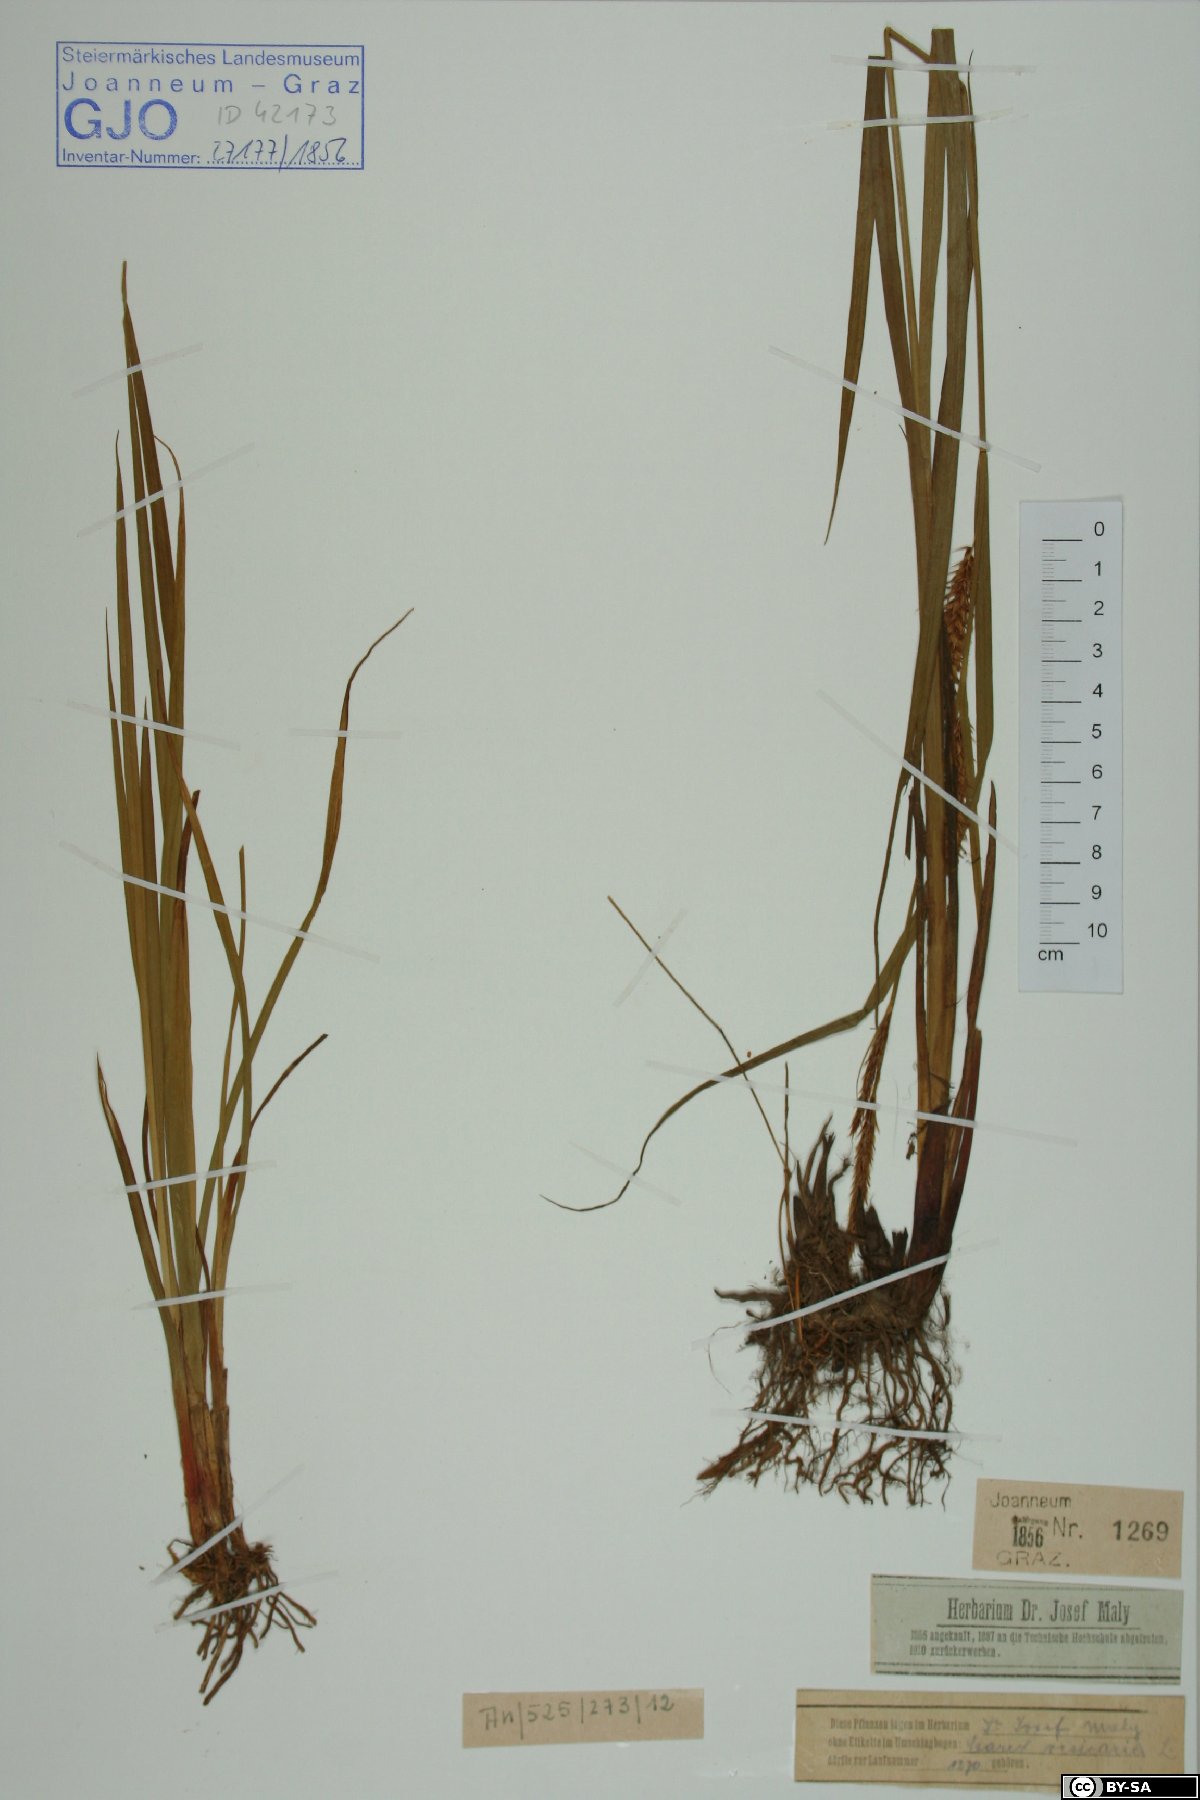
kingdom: Plantae
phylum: Tracheophyta
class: Liliopsida
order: Poales
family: Cyperaceae
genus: Carex
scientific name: Carex vesicaria
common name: Bladder-sedge
